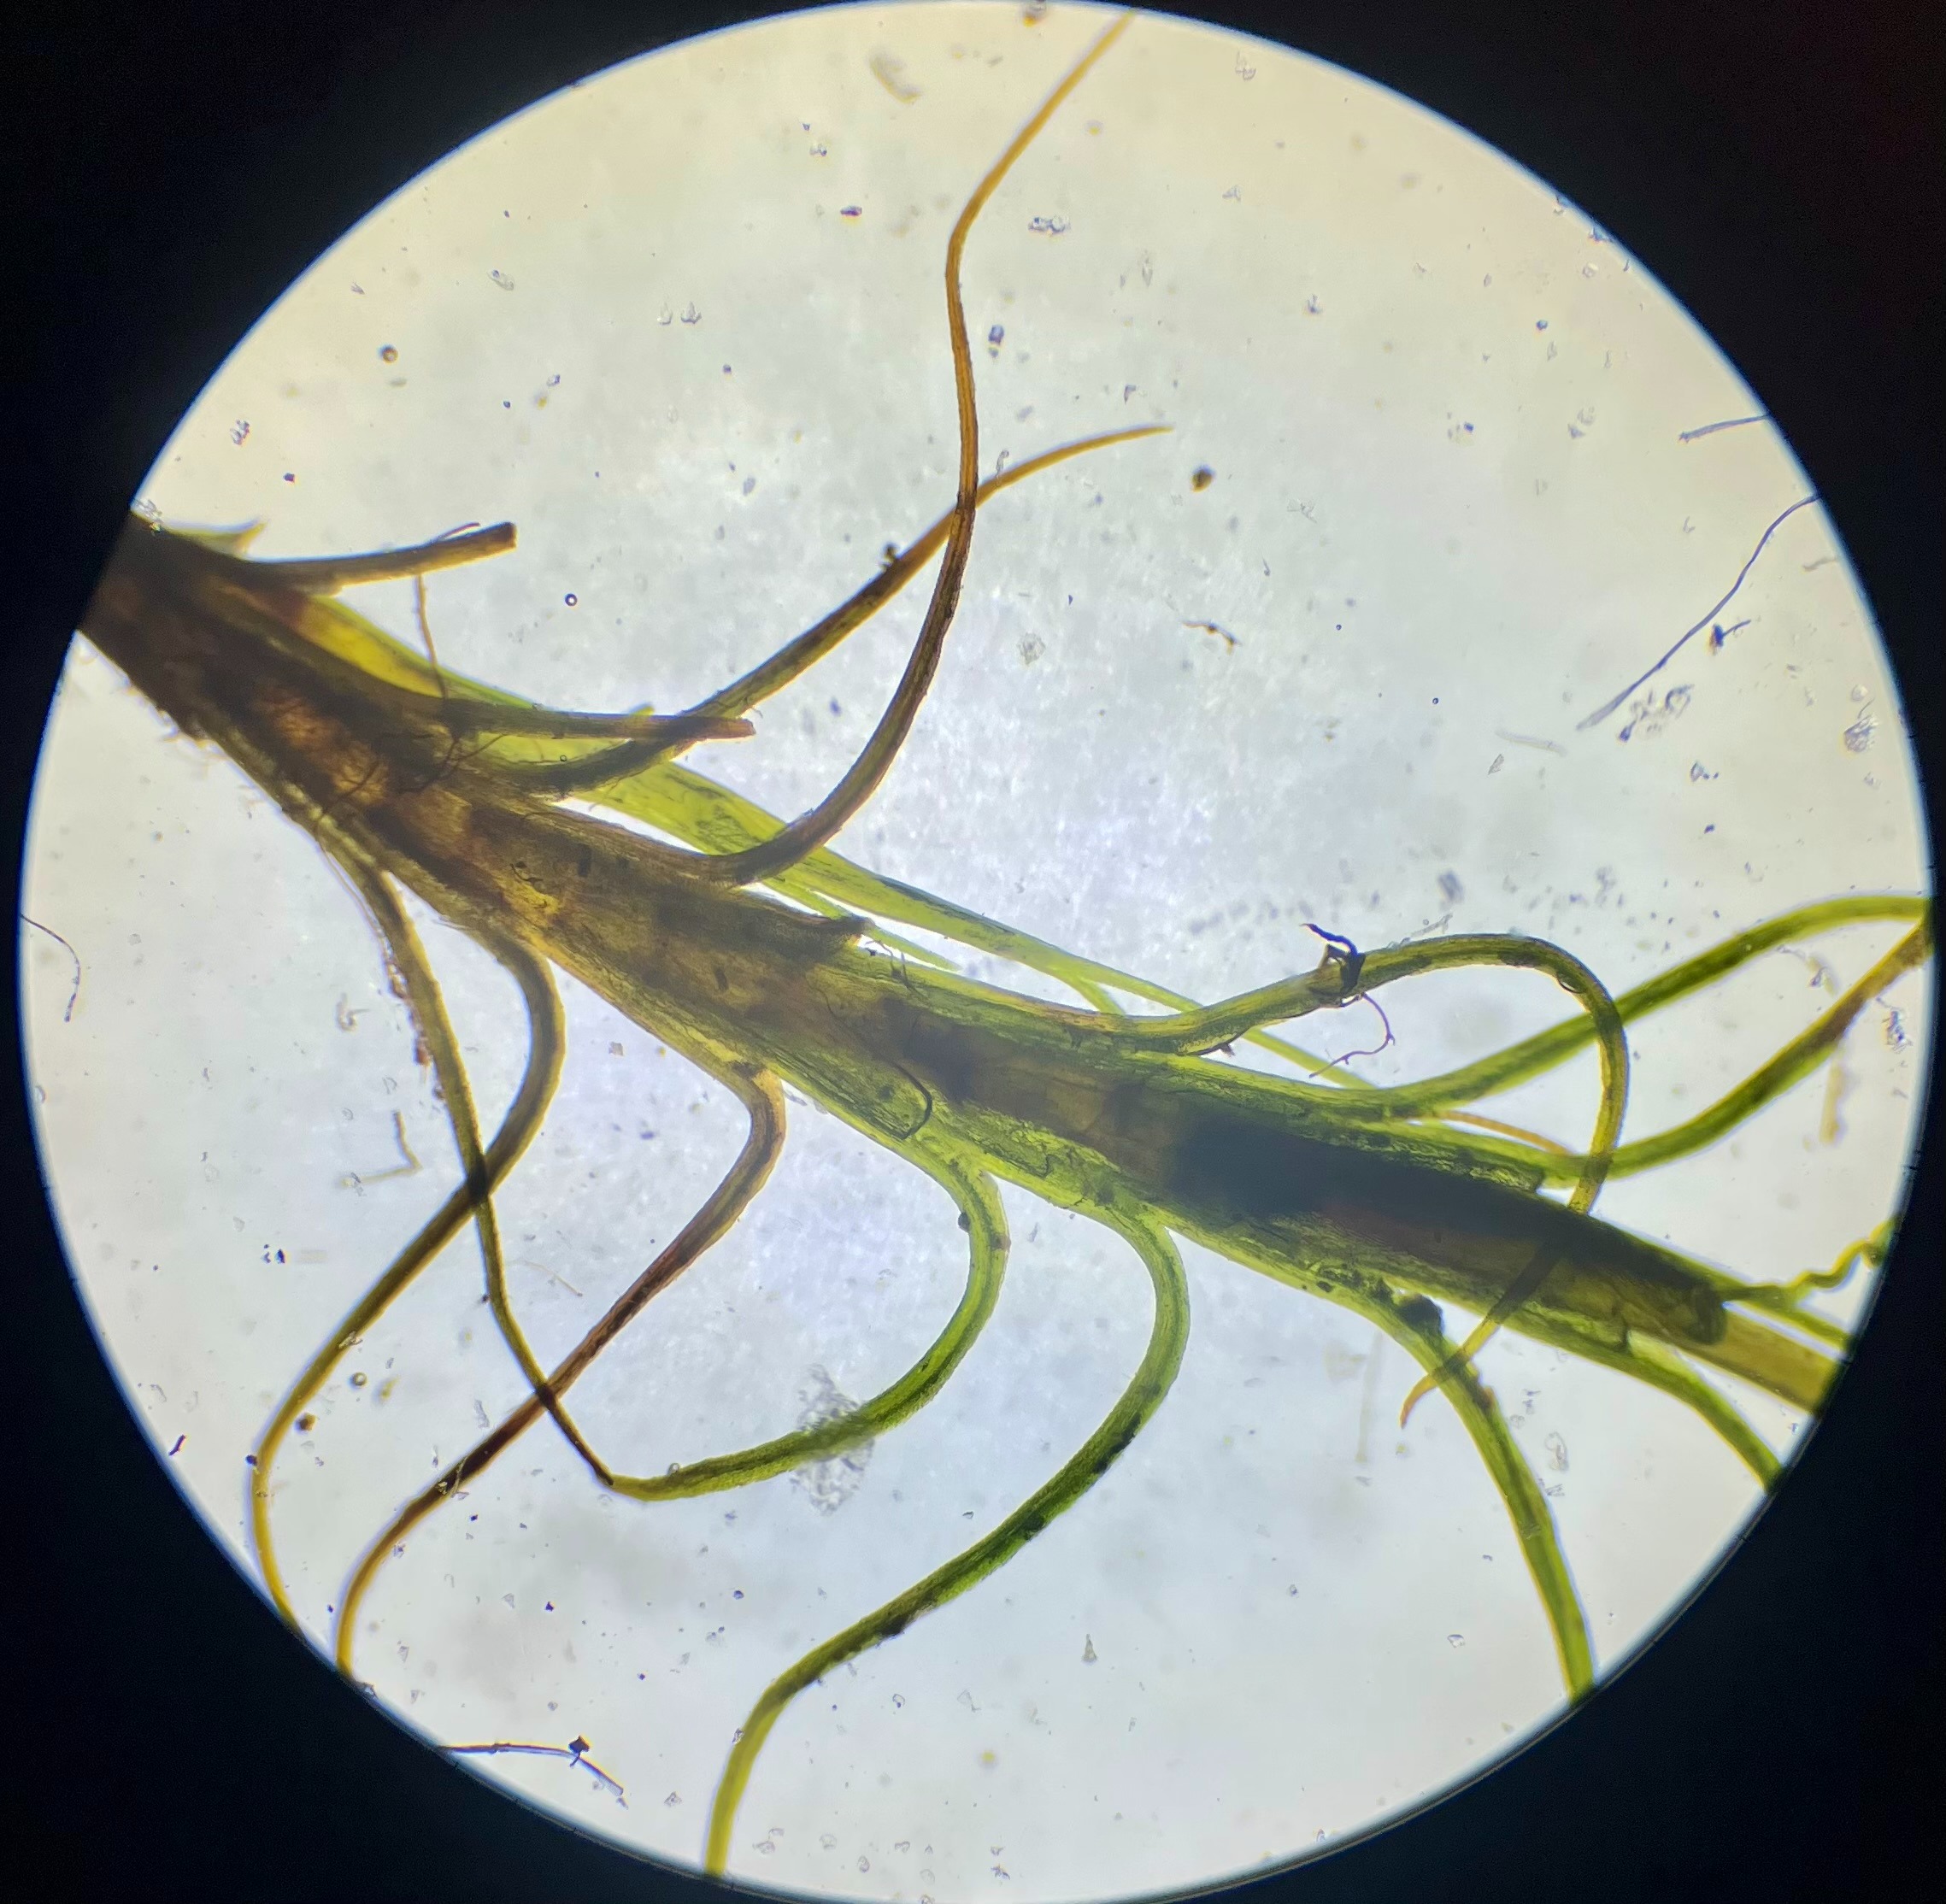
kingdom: Plantae
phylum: Bryophyta
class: Bryopsida
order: Scouleriales
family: Distichiaceae
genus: Distichium
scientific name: Distichium capillaceum
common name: Ret toradsmos
